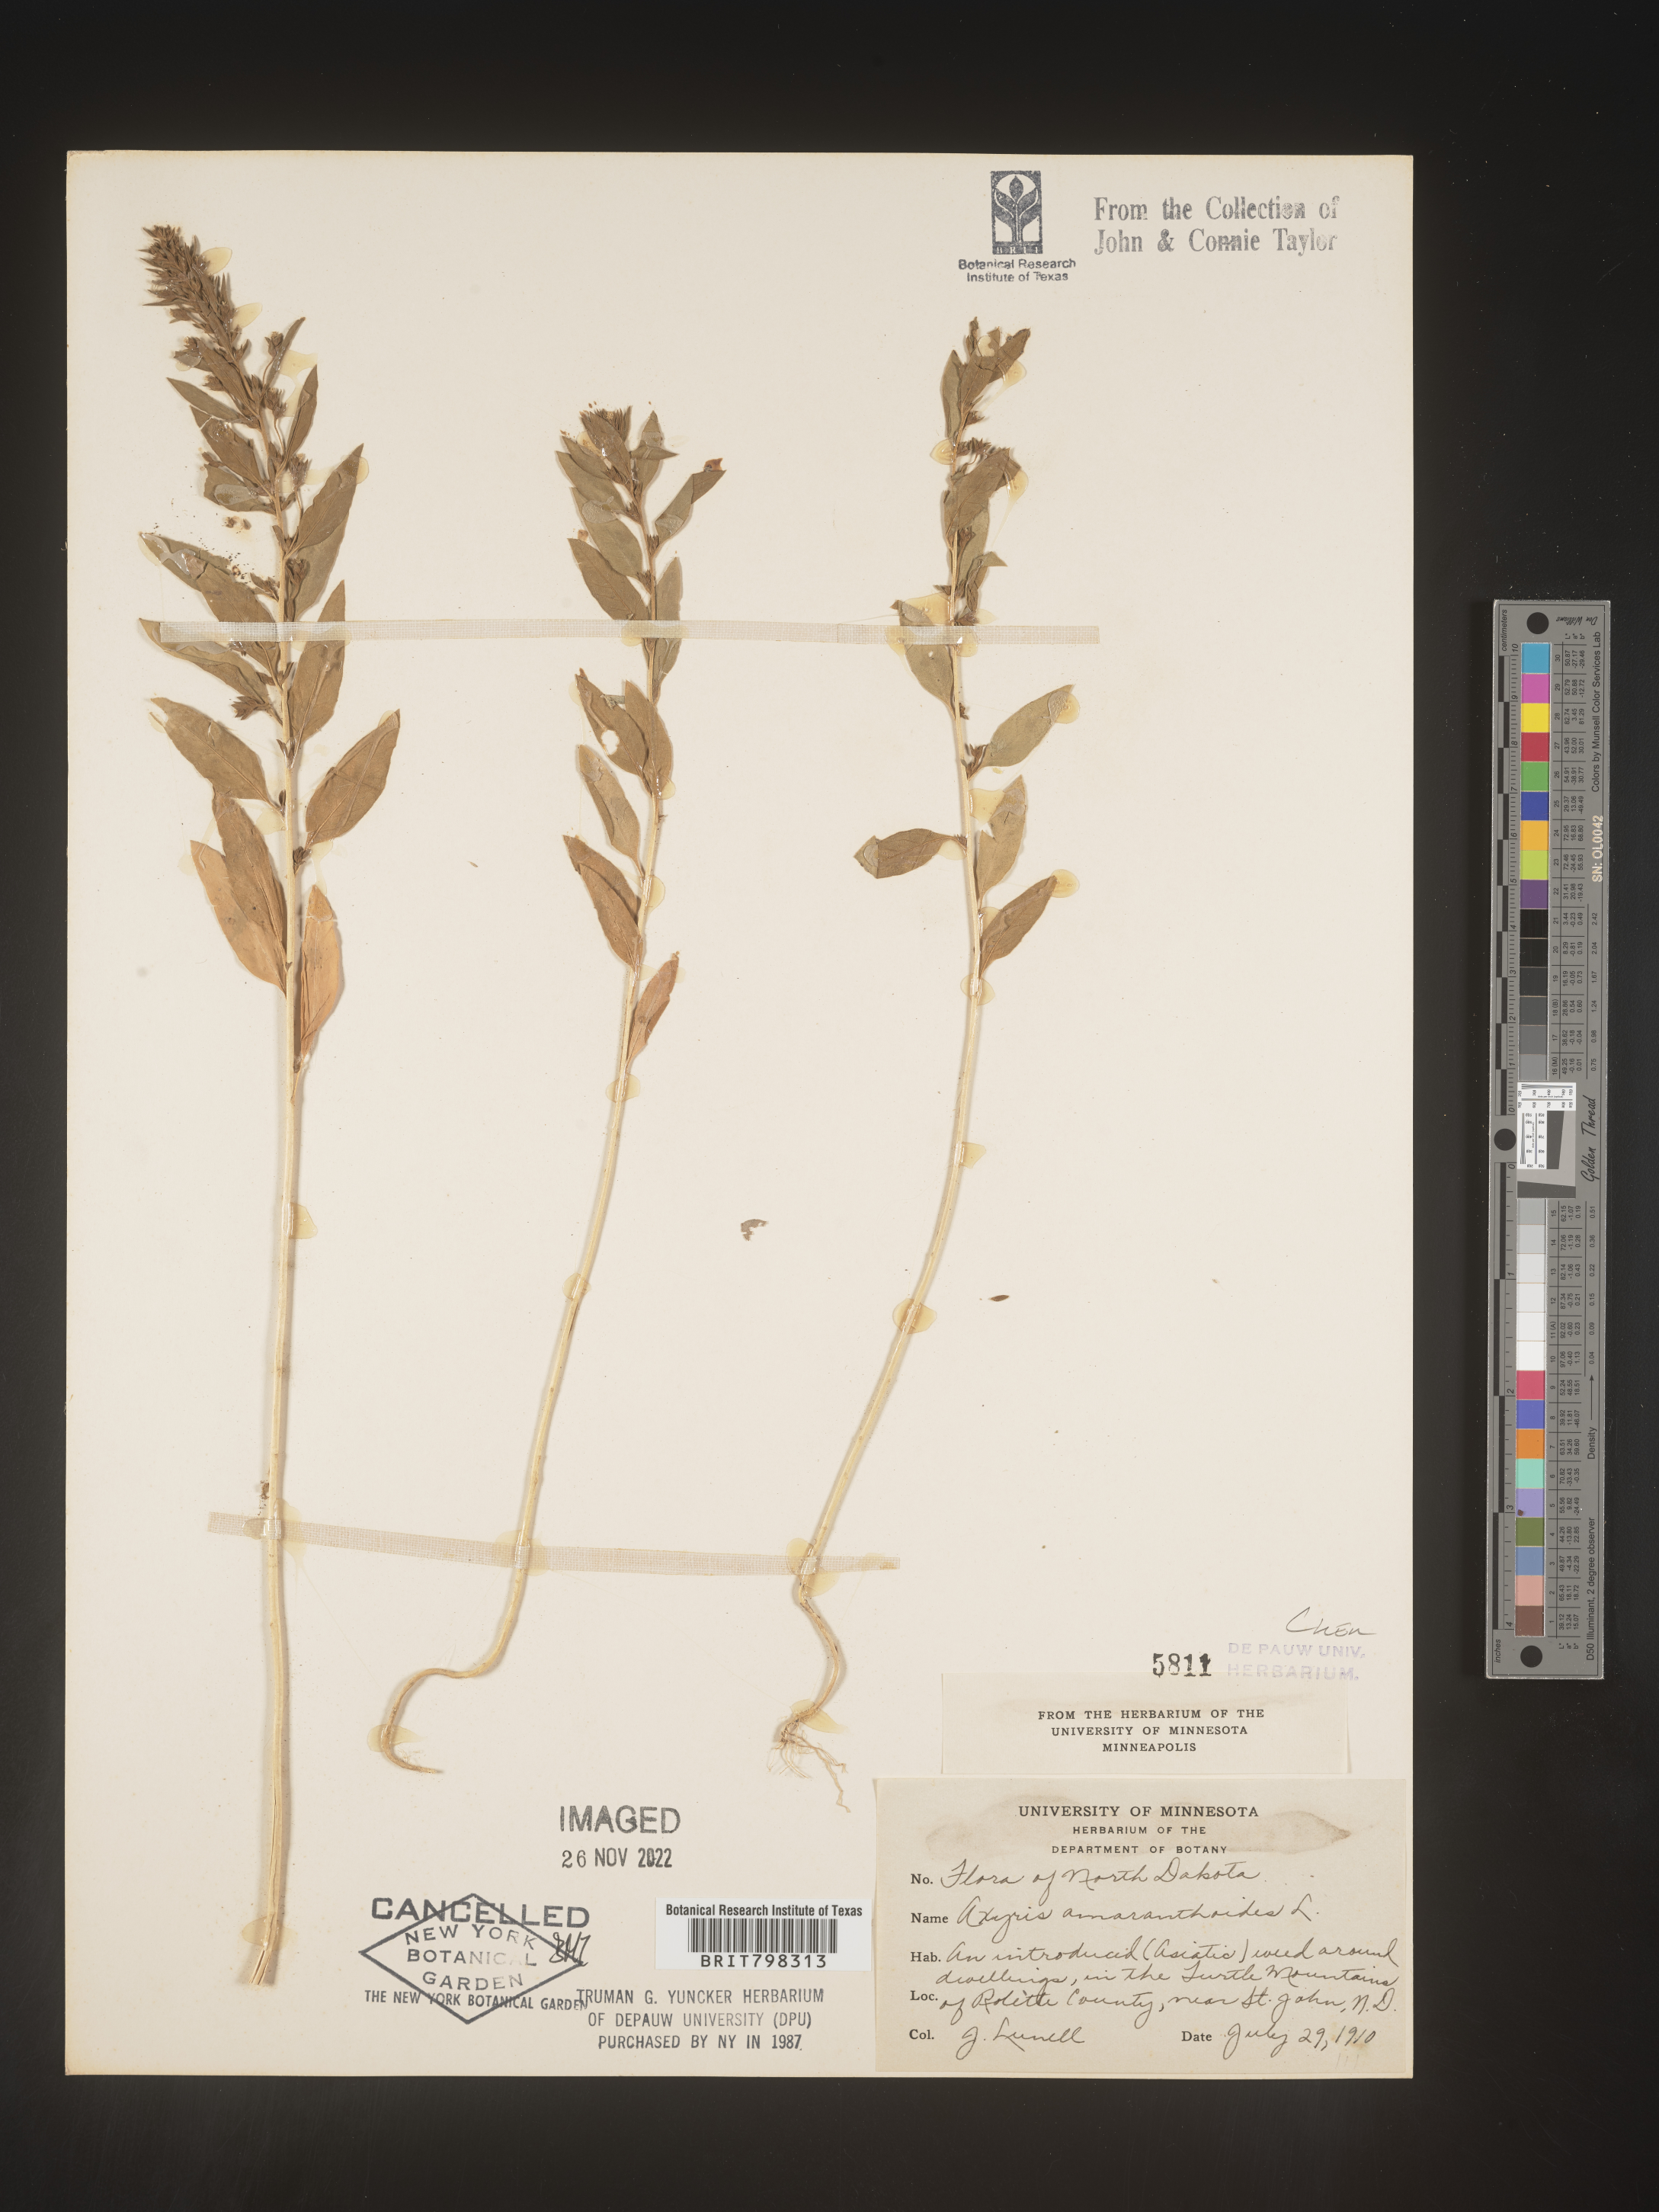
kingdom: Plantae
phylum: Tracheophyta
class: Magnoliopsida
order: Caryophyllales
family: Amaranthaceae
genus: Axyris
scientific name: Axyris
